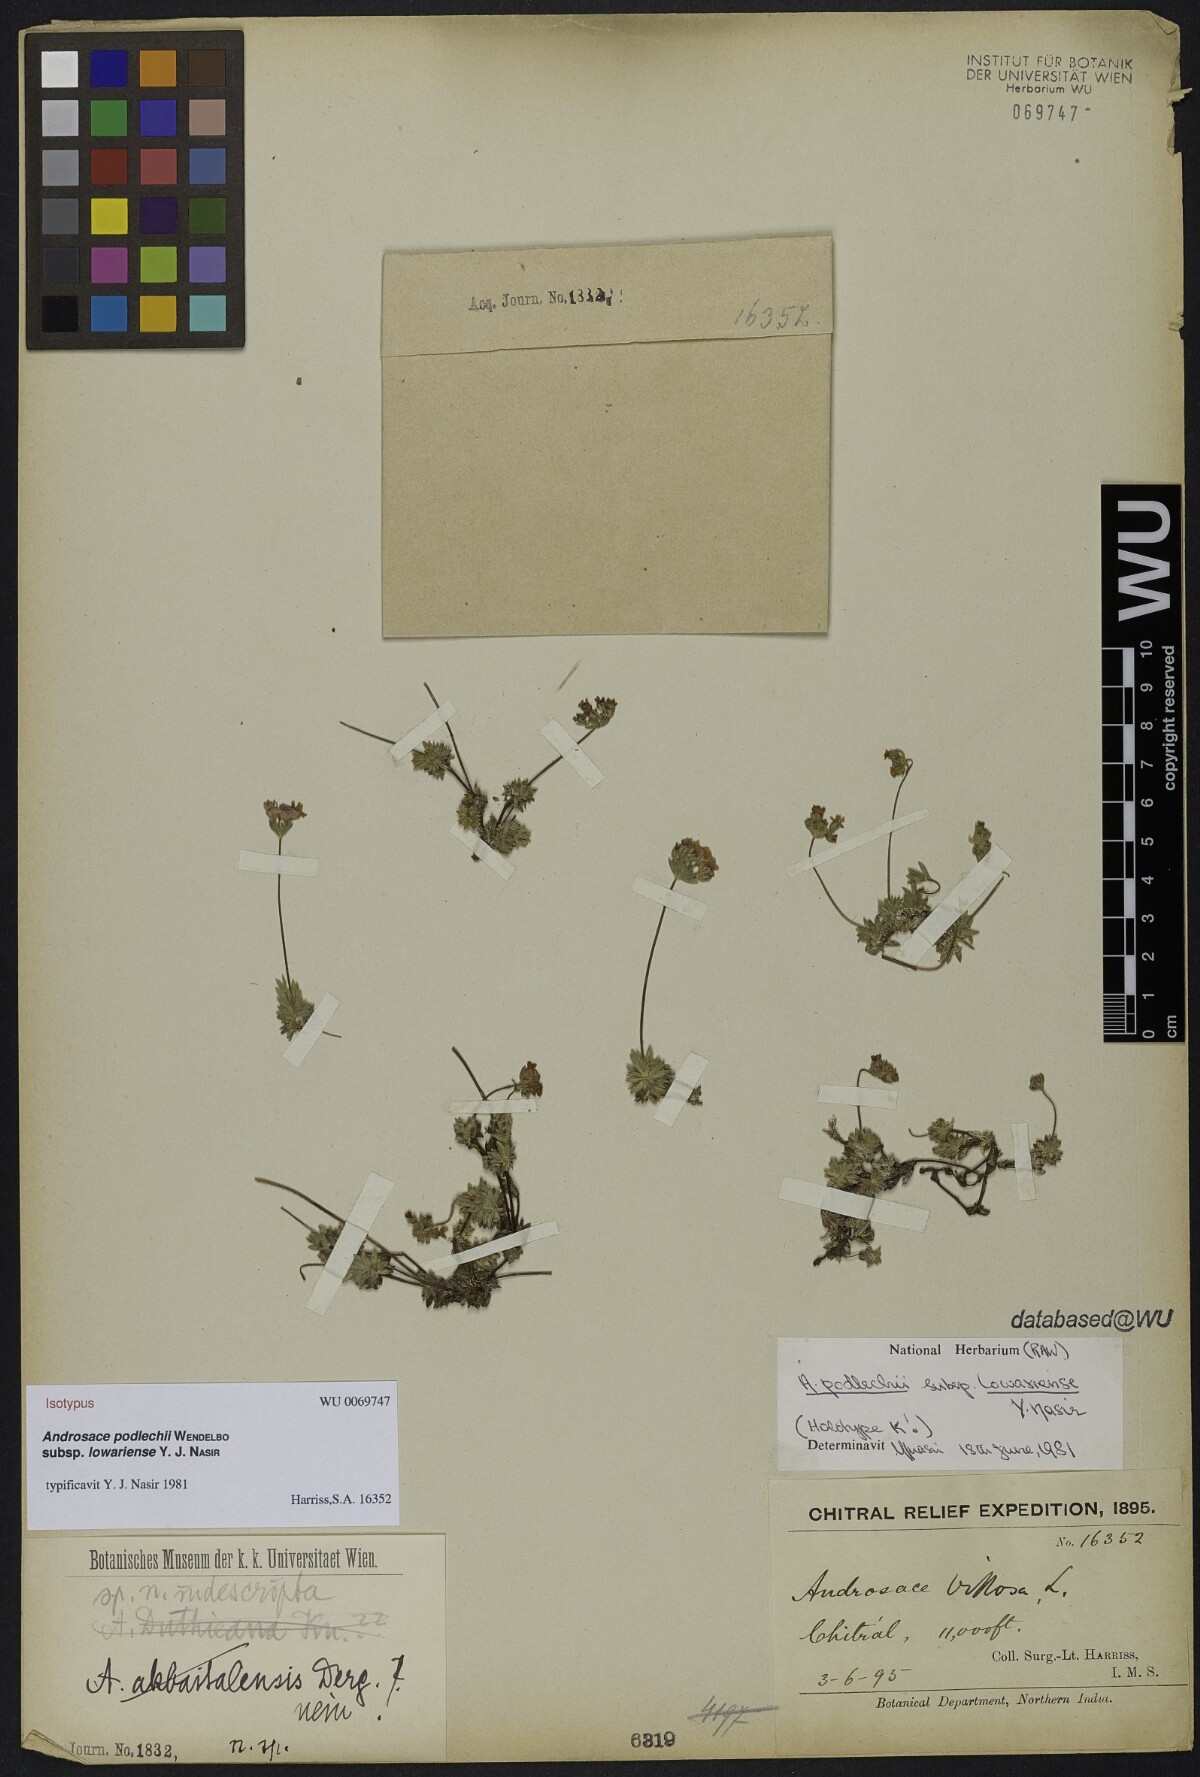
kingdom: Plantae
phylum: Tracheophyta
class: Magnoliopsida
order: Ericales
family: Primulaceae
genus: Androsace
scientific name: Androsace podlechii
